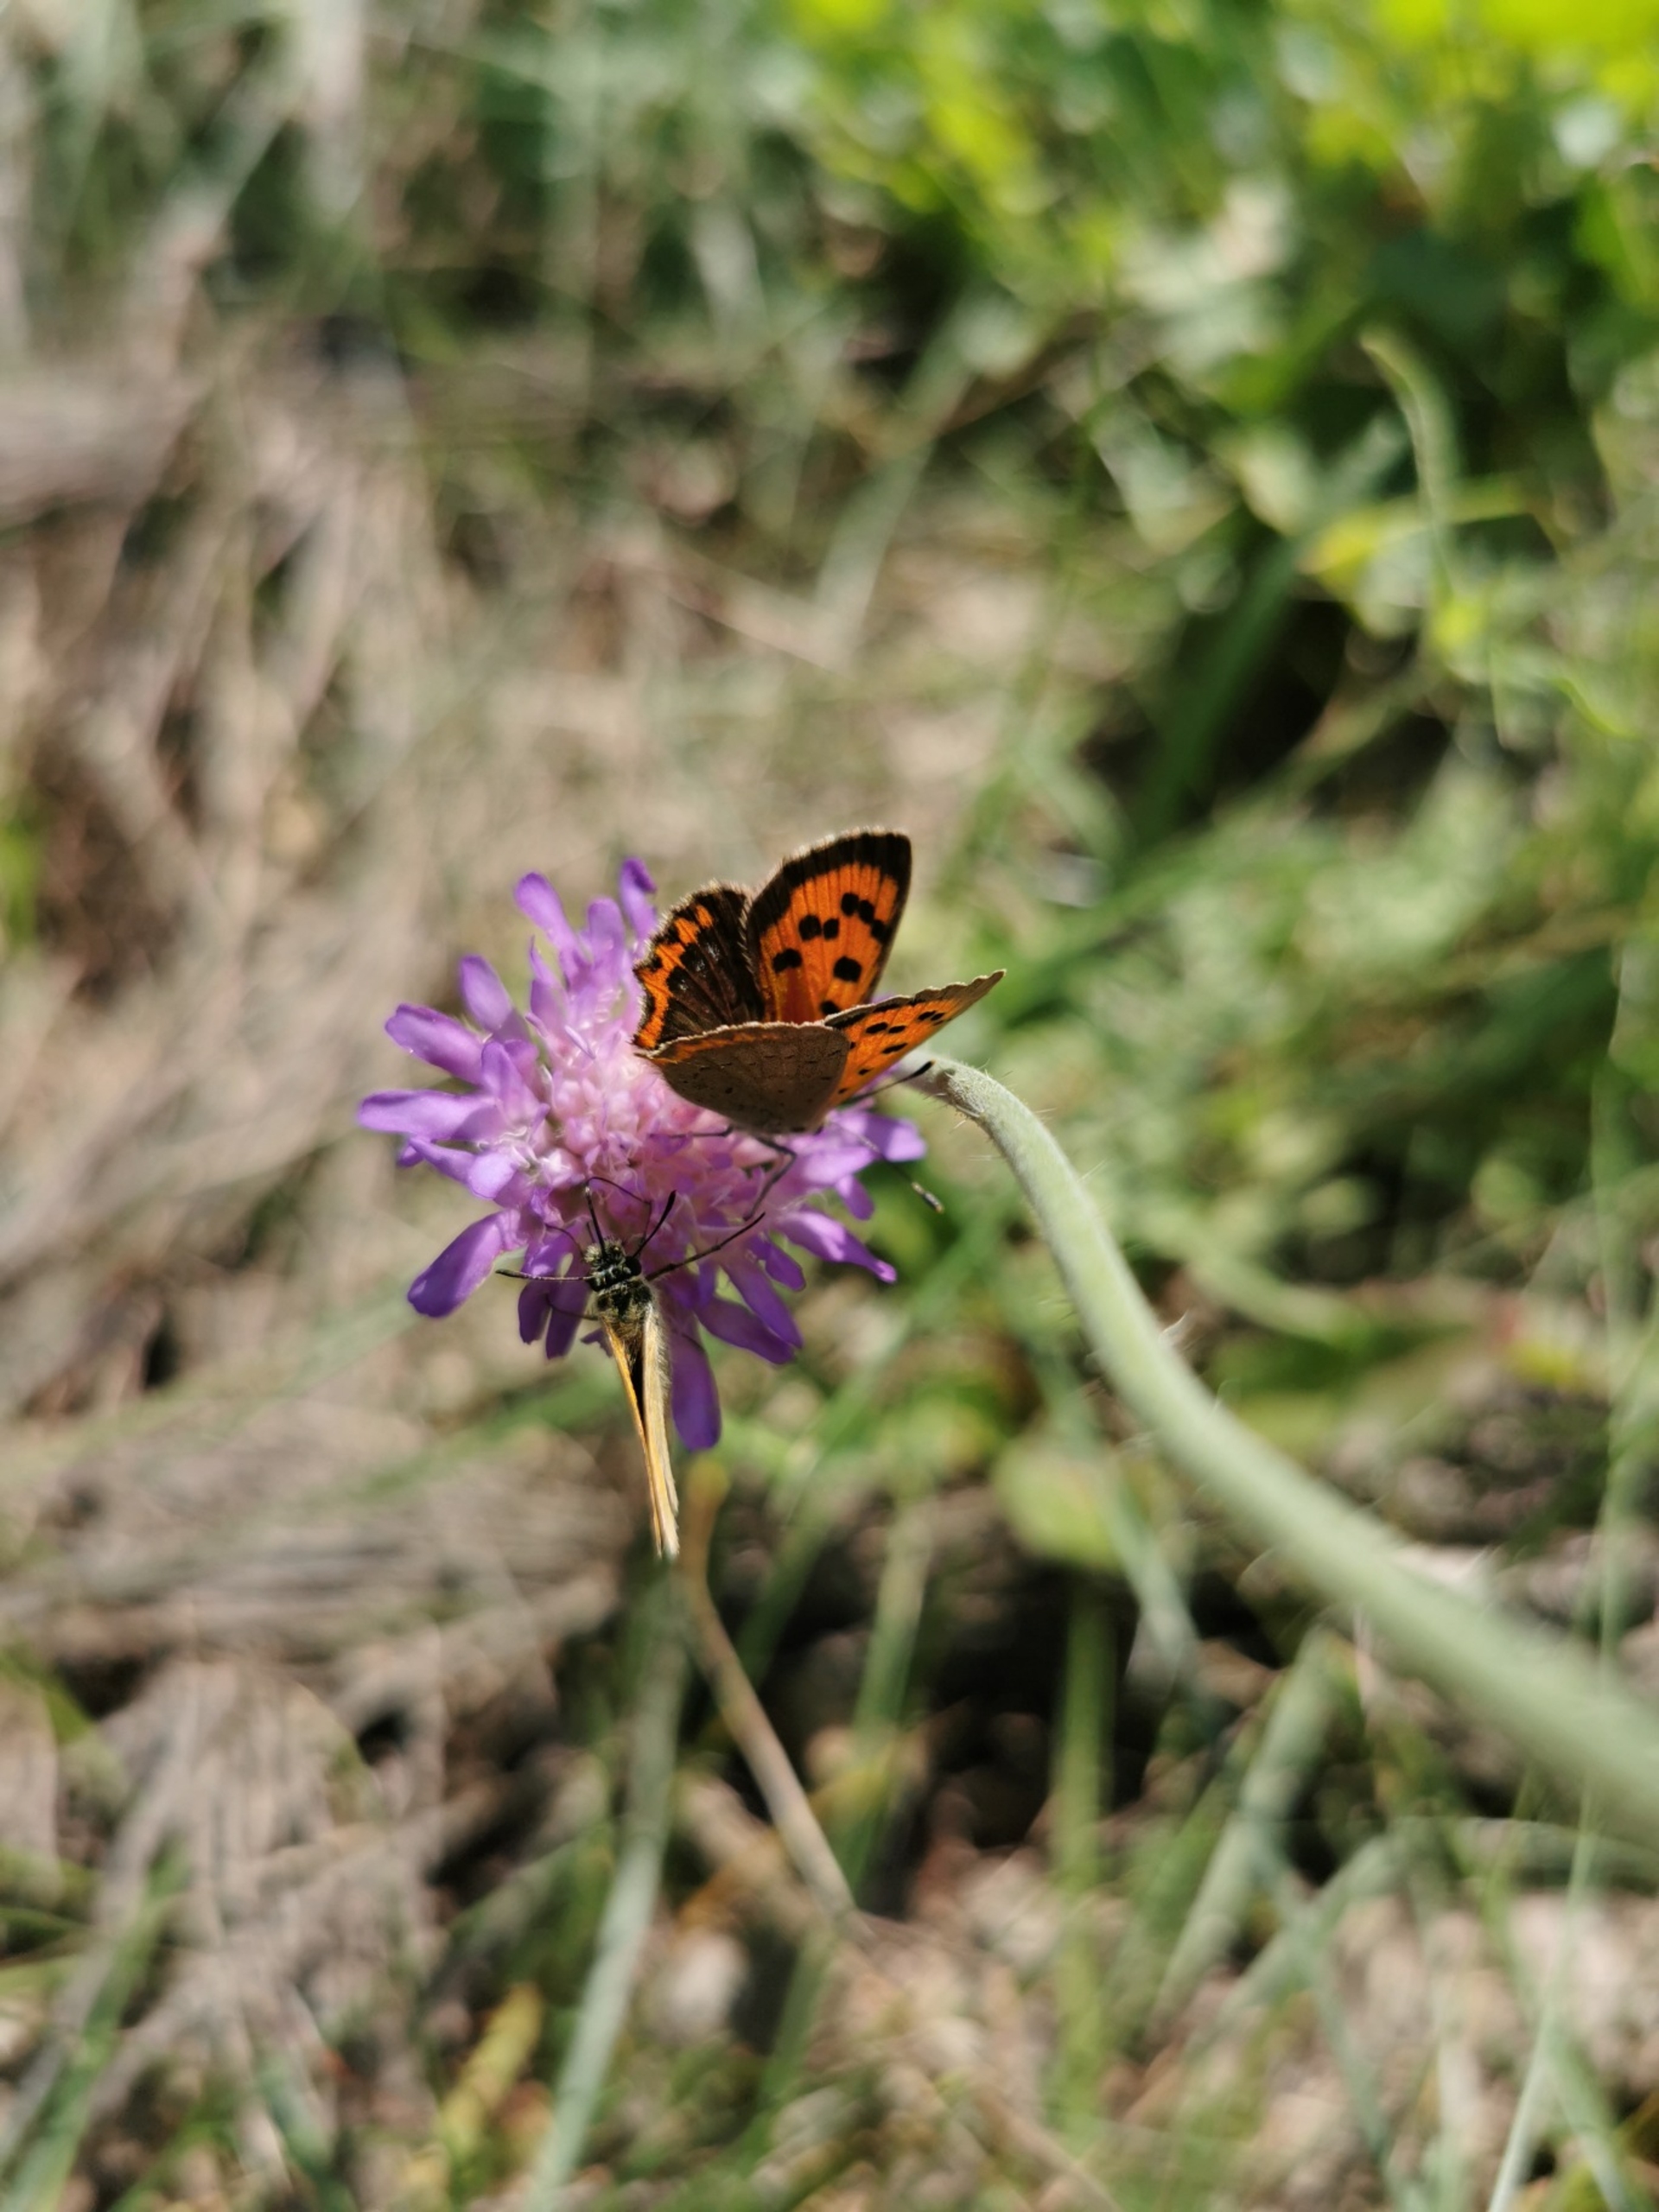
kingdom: Animalia
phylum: Arthropoda
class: Insecta
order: Lepidoptera
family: Lycaenidae
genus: Lycaena
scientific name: Lycaena phlaeas
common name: Lille ildfugl
